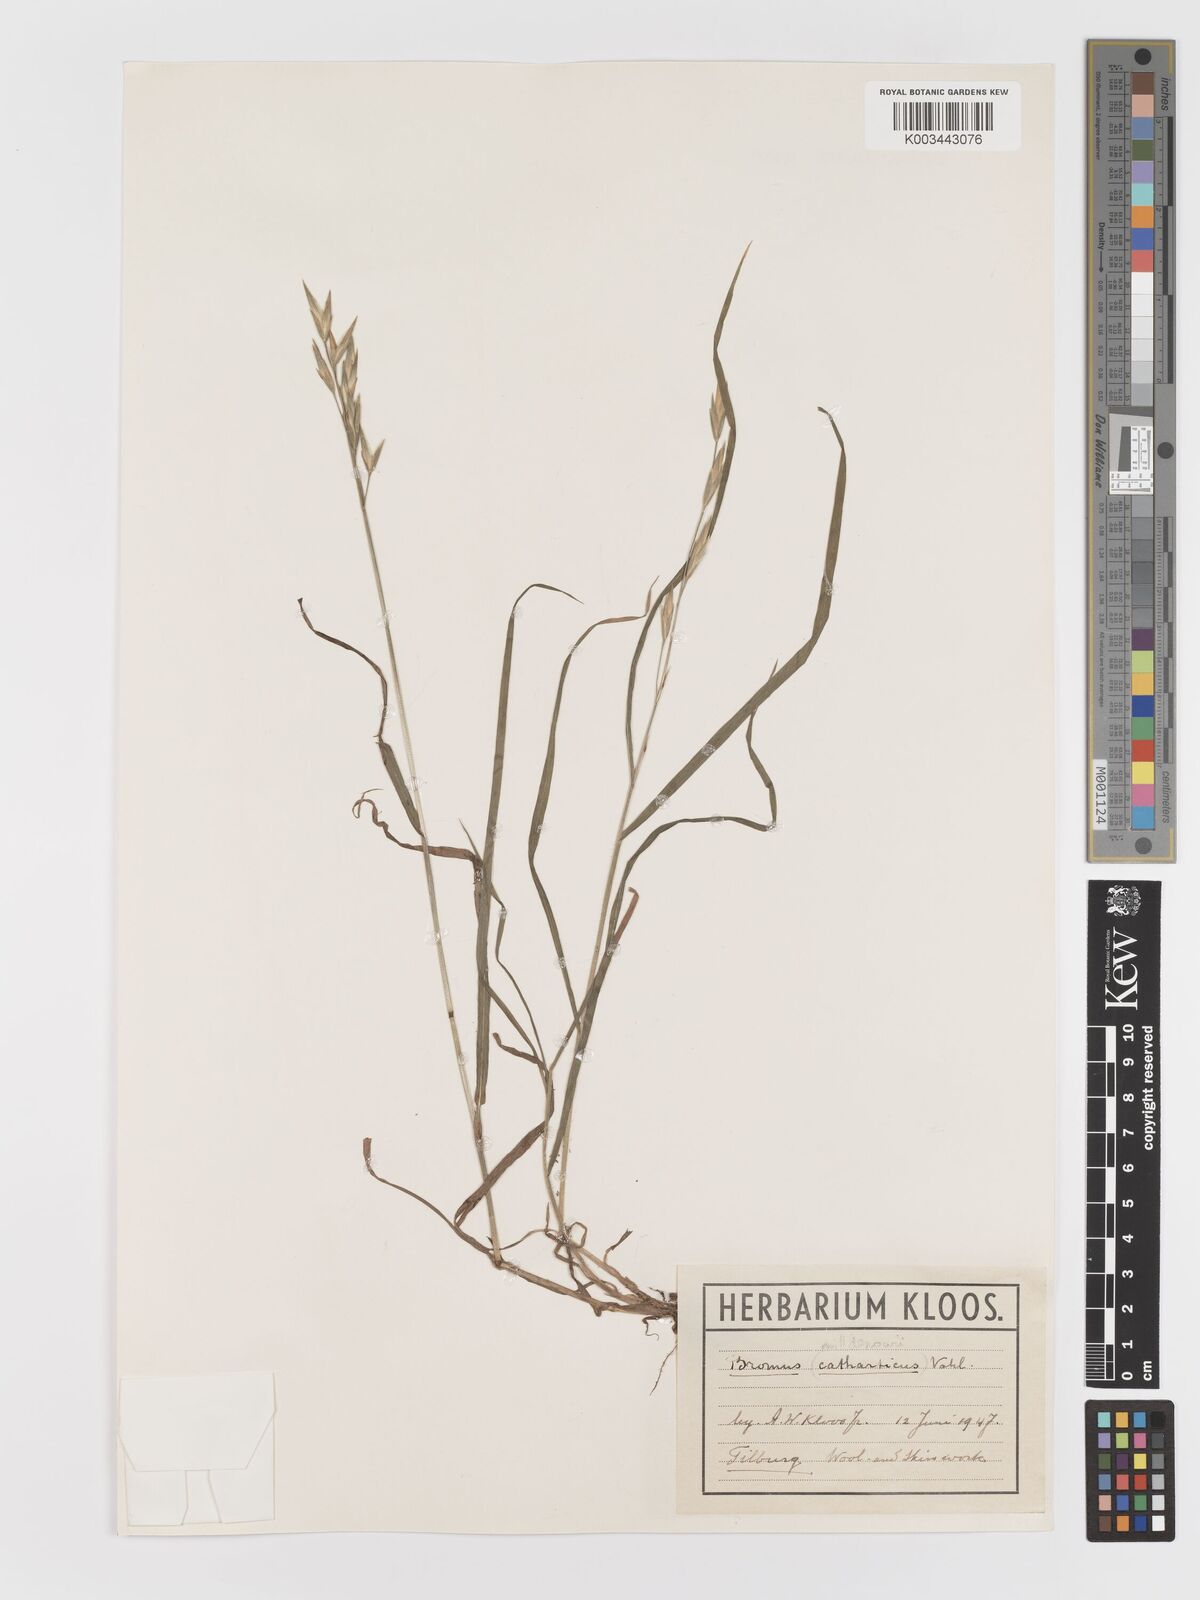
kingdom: Plantae
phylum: Tracheophyta
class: Liliopsida
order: Poales
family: Poaceae
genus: Bromus
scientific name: Bromus catharticus
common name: Rescuegrass
